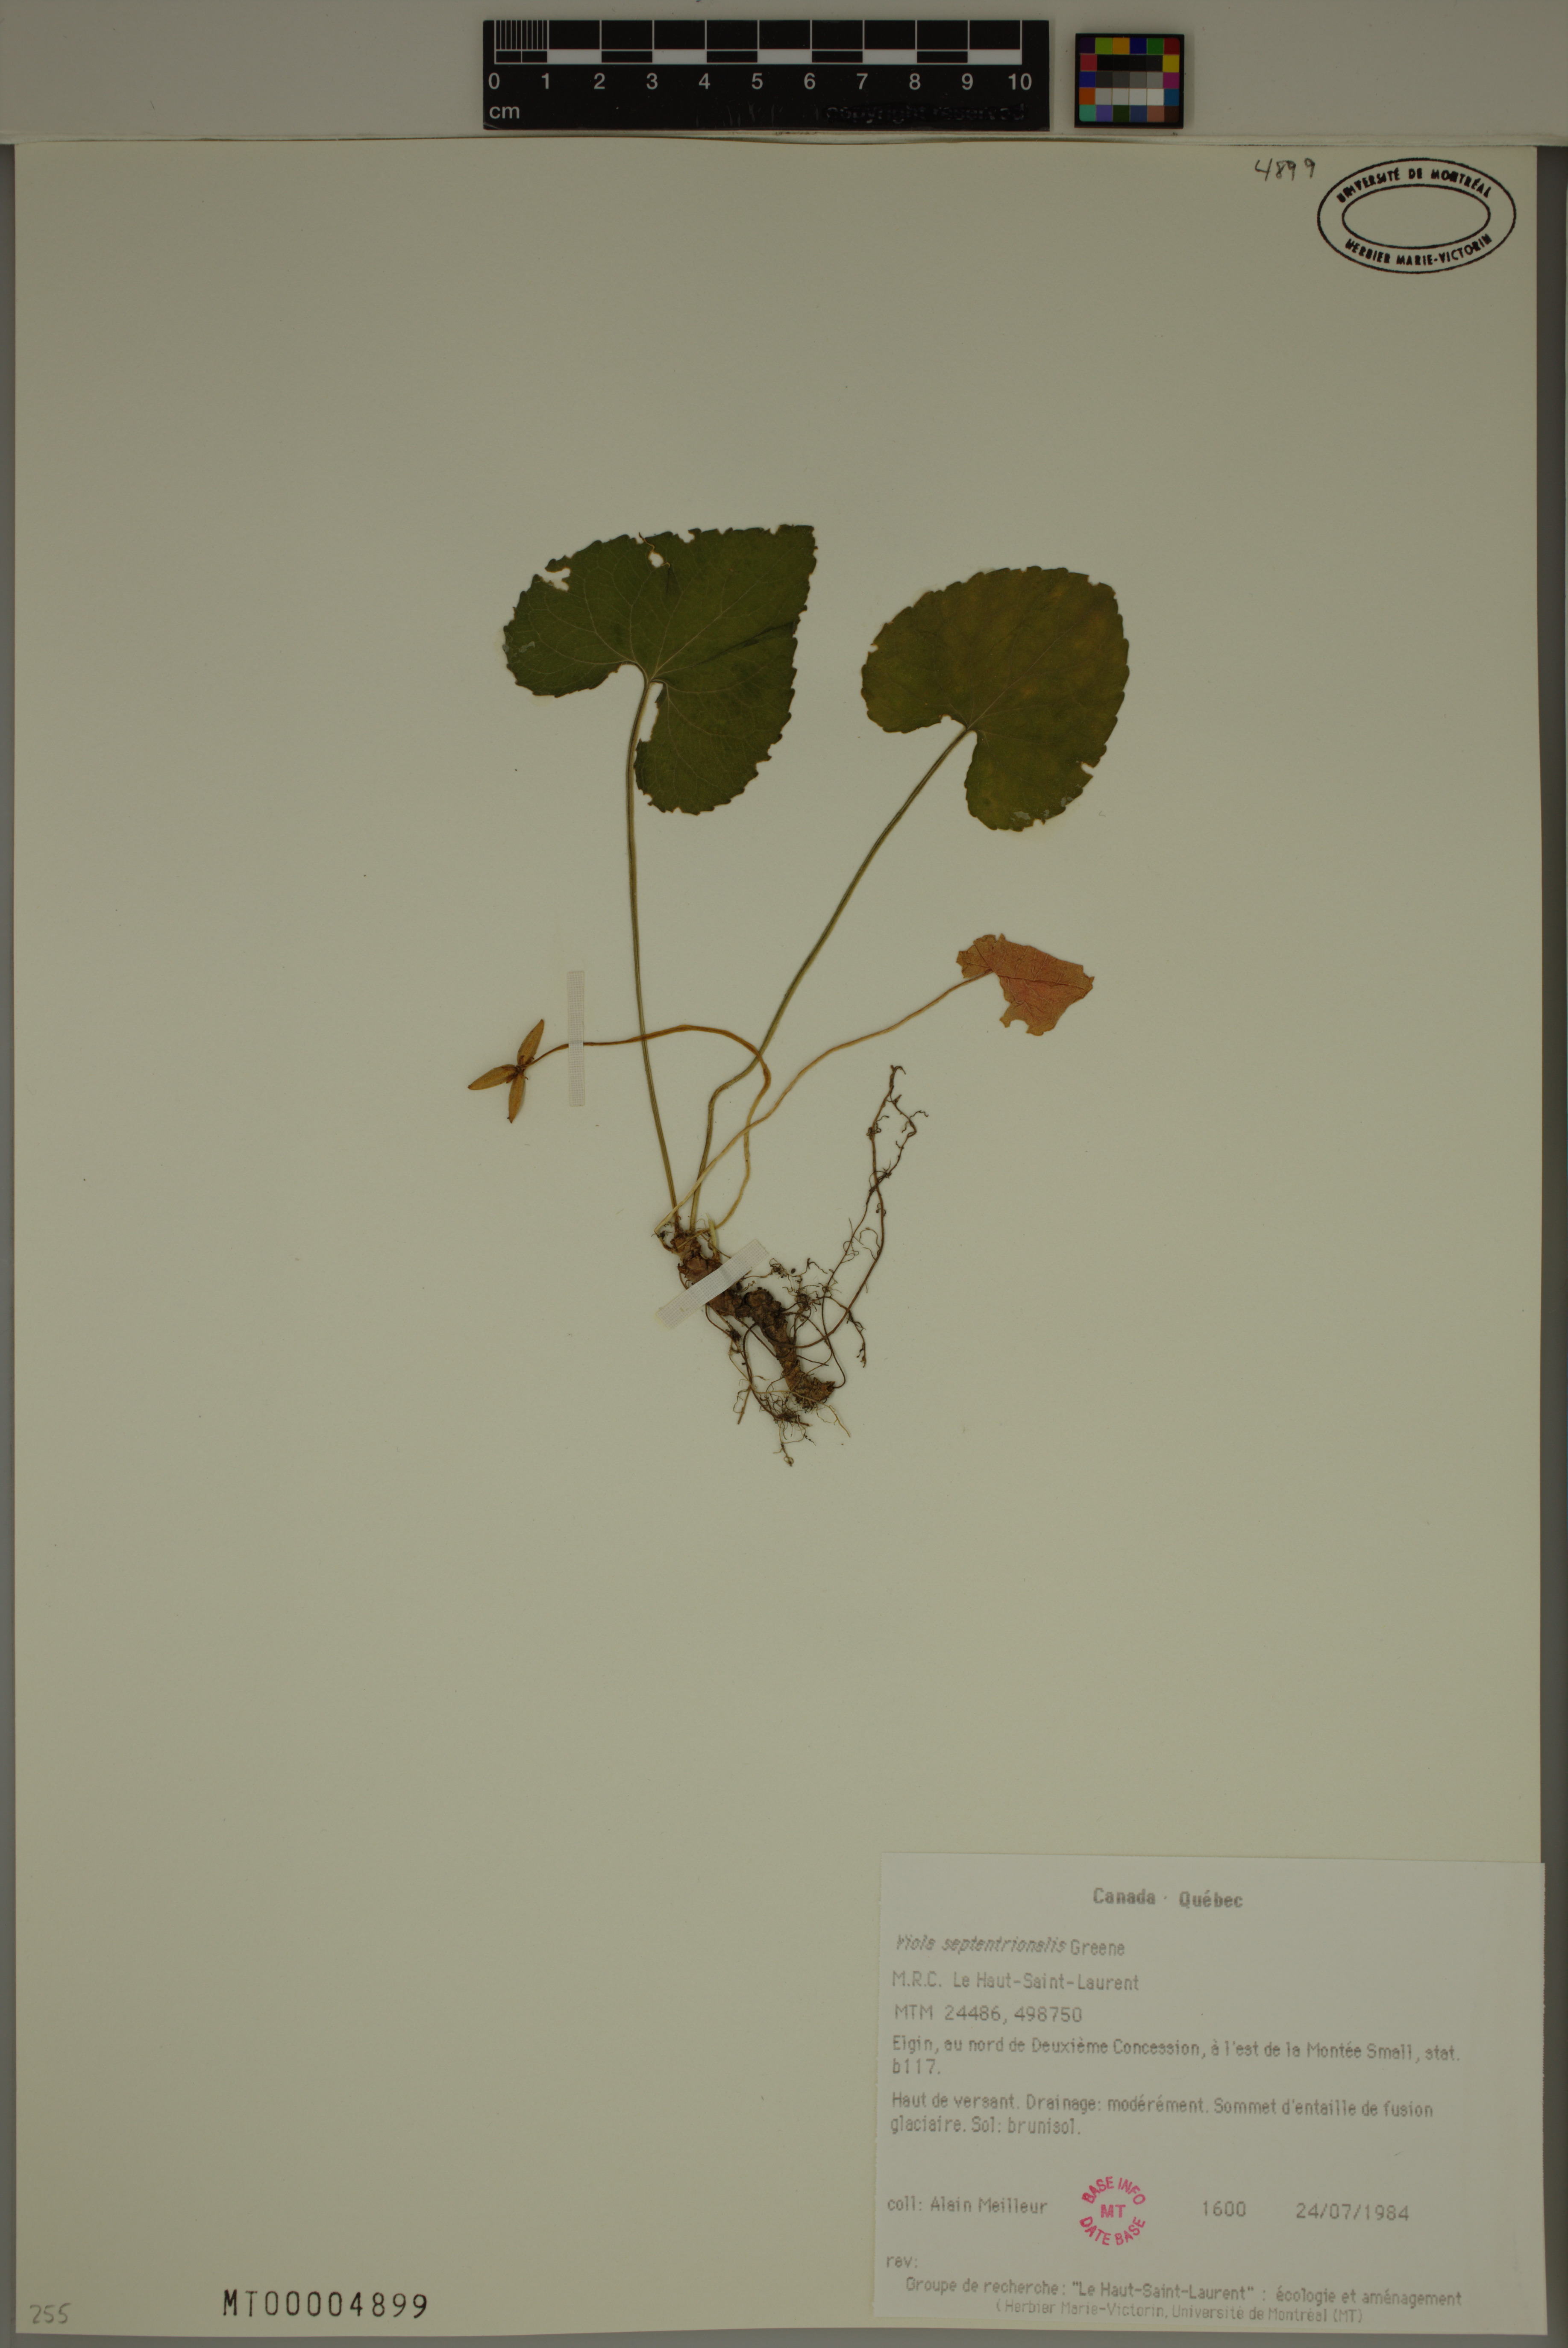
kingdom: Plantae
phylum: Tracheophyta
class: Magnoliopsida
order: Malpighiales
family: Violaceae
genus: Viola
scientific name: Viola sororia
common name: Dooryard violet
